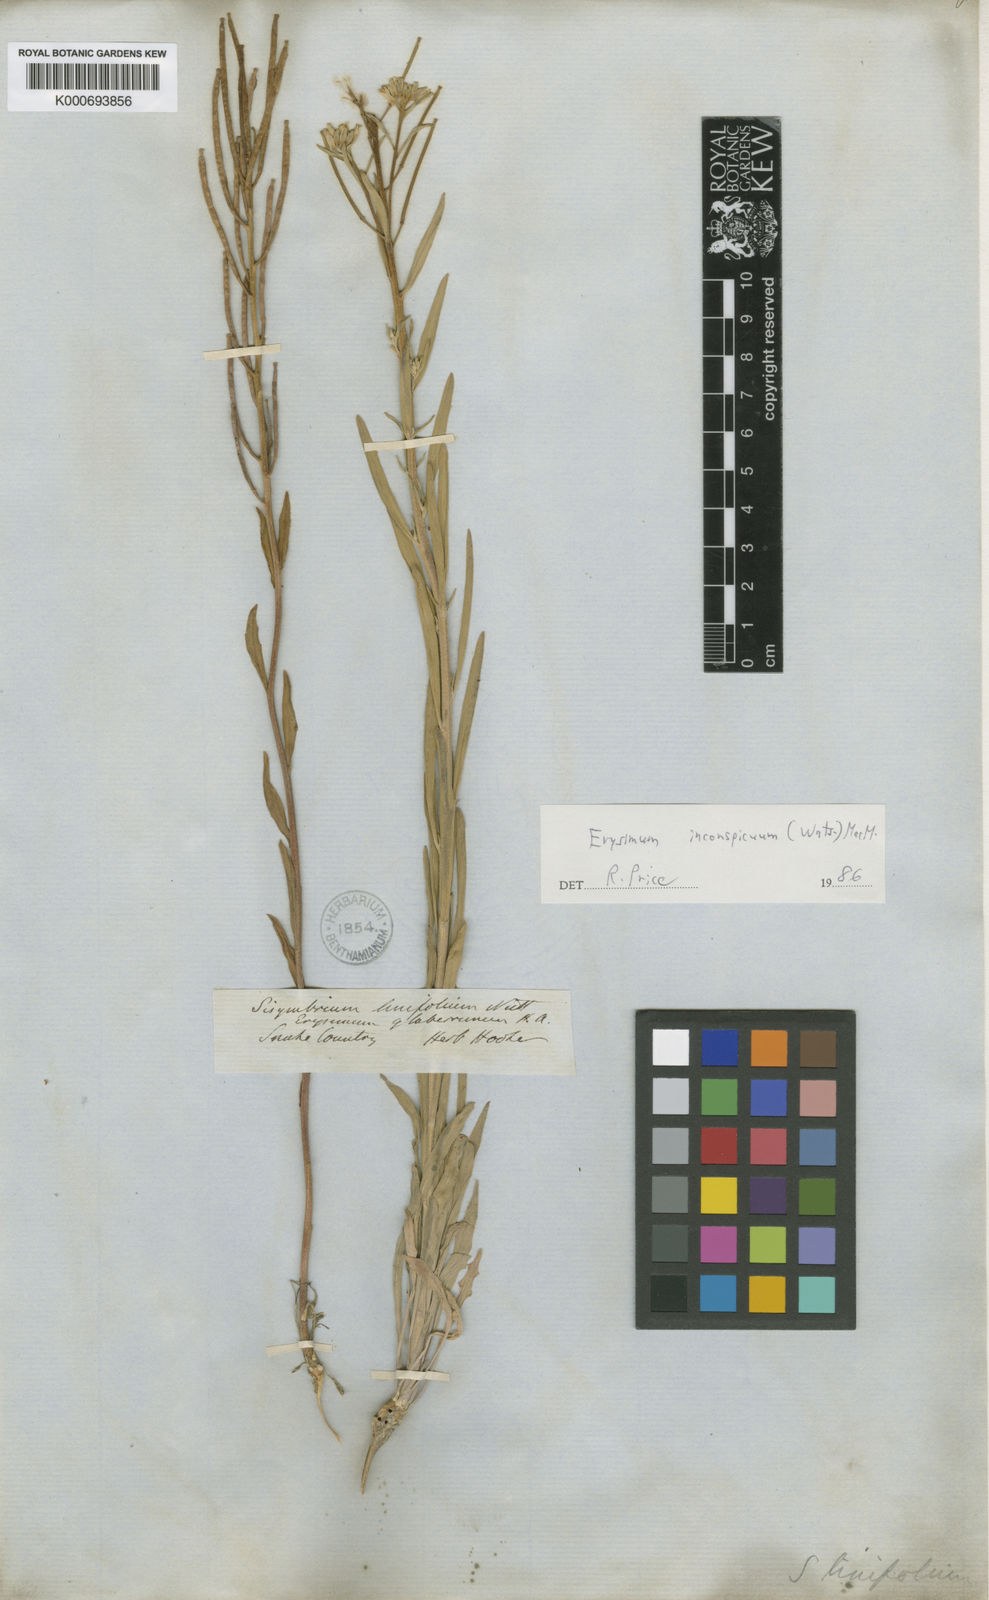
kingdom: Plantae
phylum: Tracheophyta
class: Magnoliopsida
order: Brassicales
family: Brassicaceae
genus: Erysimum
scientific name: Erysimum inconspicuum
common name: Shy wallflower
